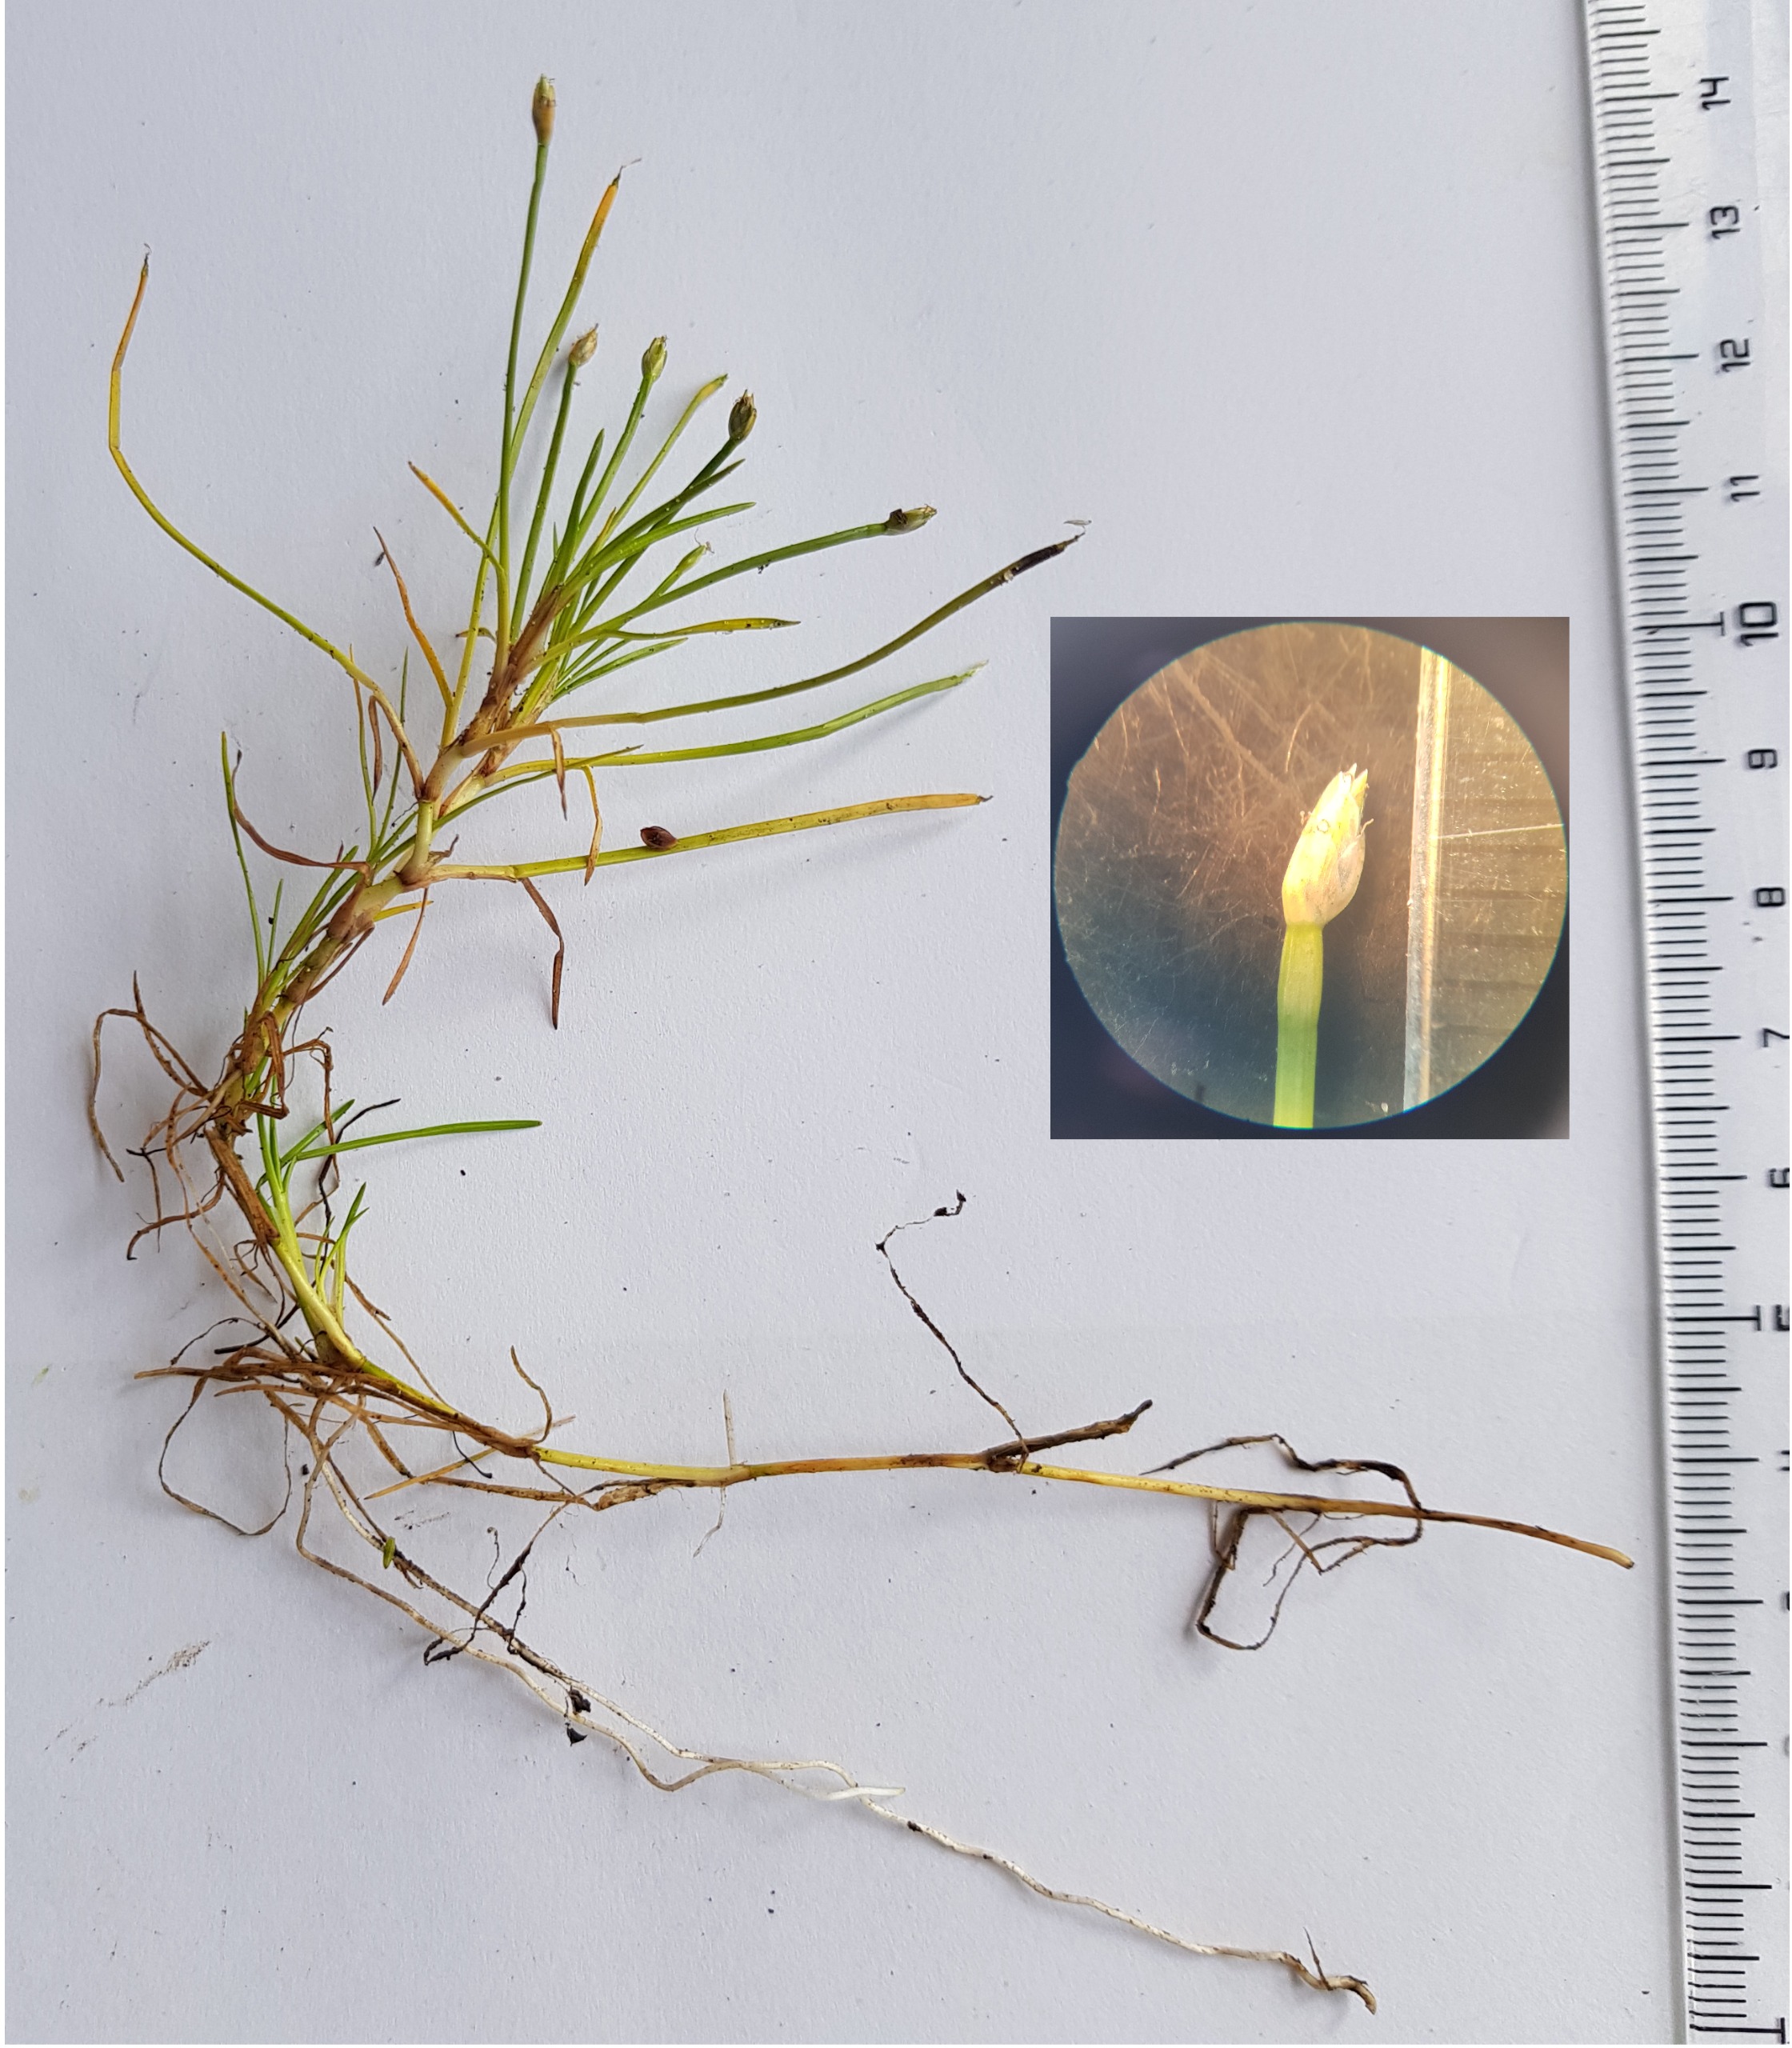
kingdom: Plantae
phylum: Tracheophyta
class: Liliopsida
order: Poales
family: Cyperaceae
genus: Isolepis
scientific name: Isolepis fluitans
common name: Flydende kogleaks
